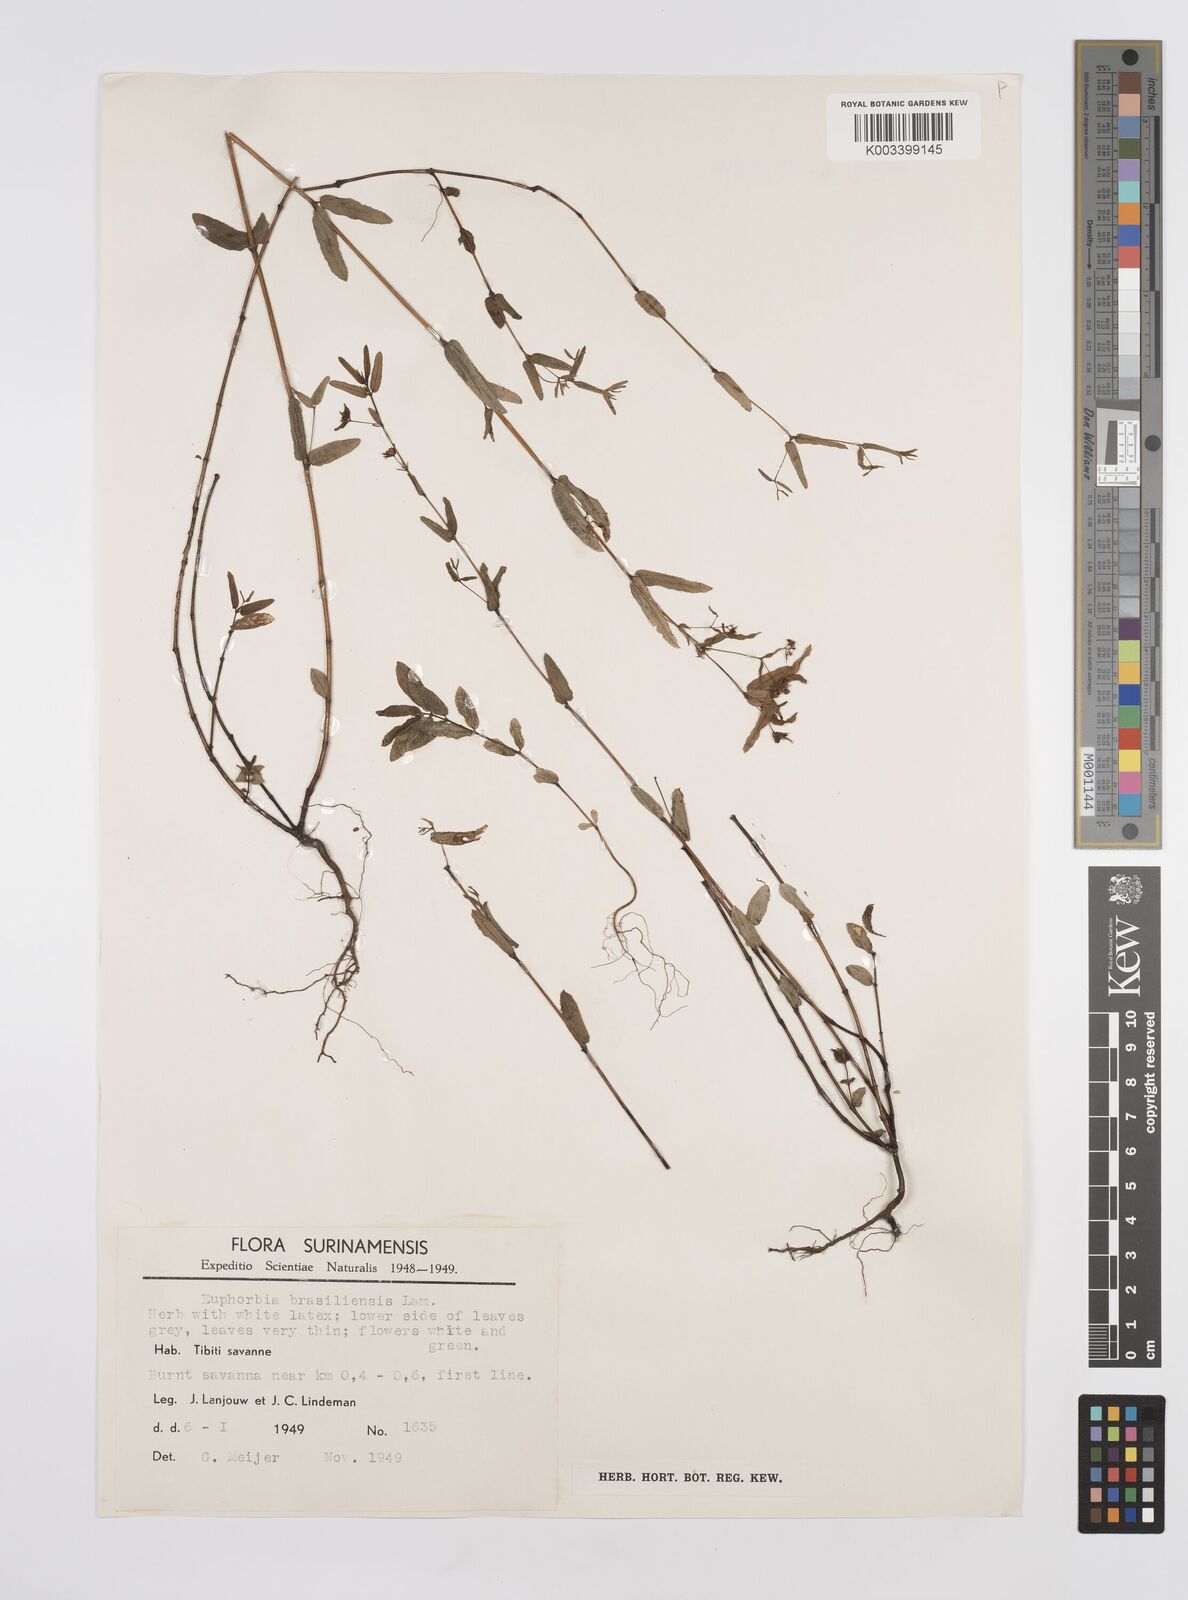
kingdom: Plantae
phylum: Tracheophyta
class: Magnoliopsida
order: Malpighiales
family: Euphorbiaceae
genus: Euphorbia
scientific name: Euphorbia hyssopifolia
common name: Hyssopleaf sandmat
